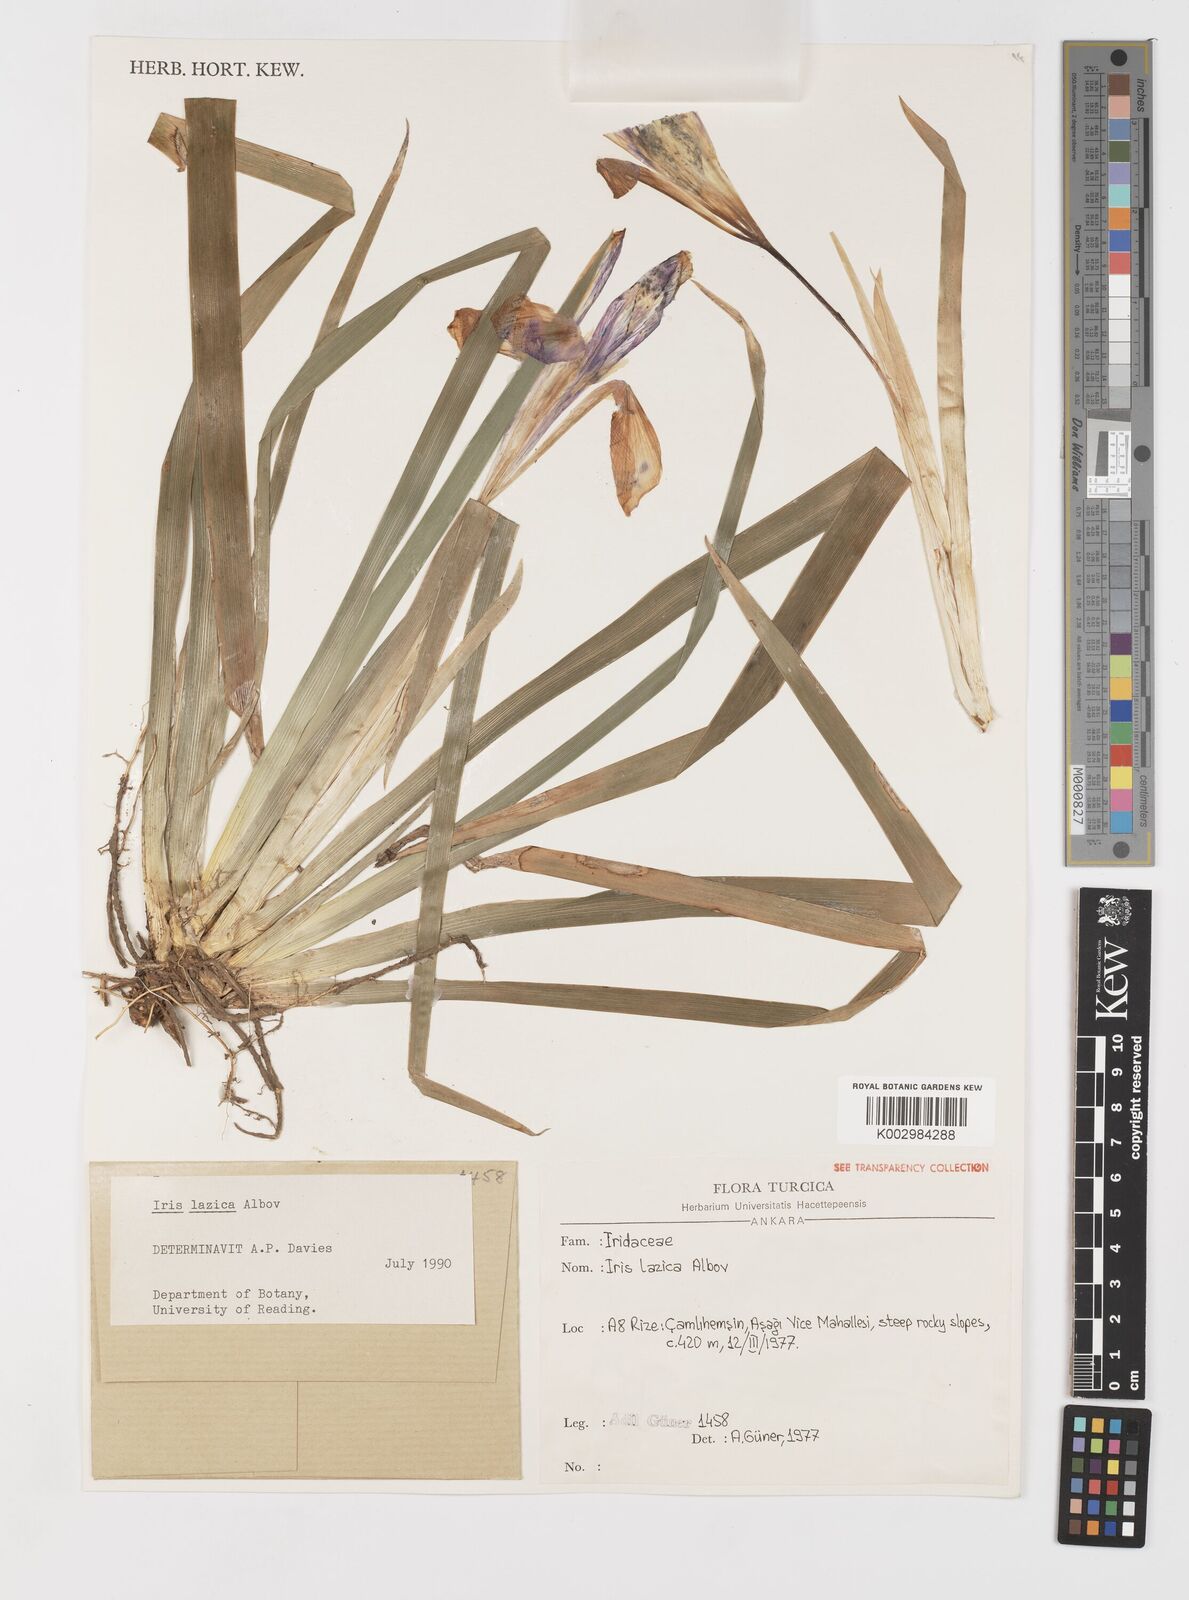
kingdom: Plantae
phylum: Tracheophyta
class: Liliopsida
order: Asparagales
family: Iridaceae
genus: Iris
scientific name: Iris lazica
